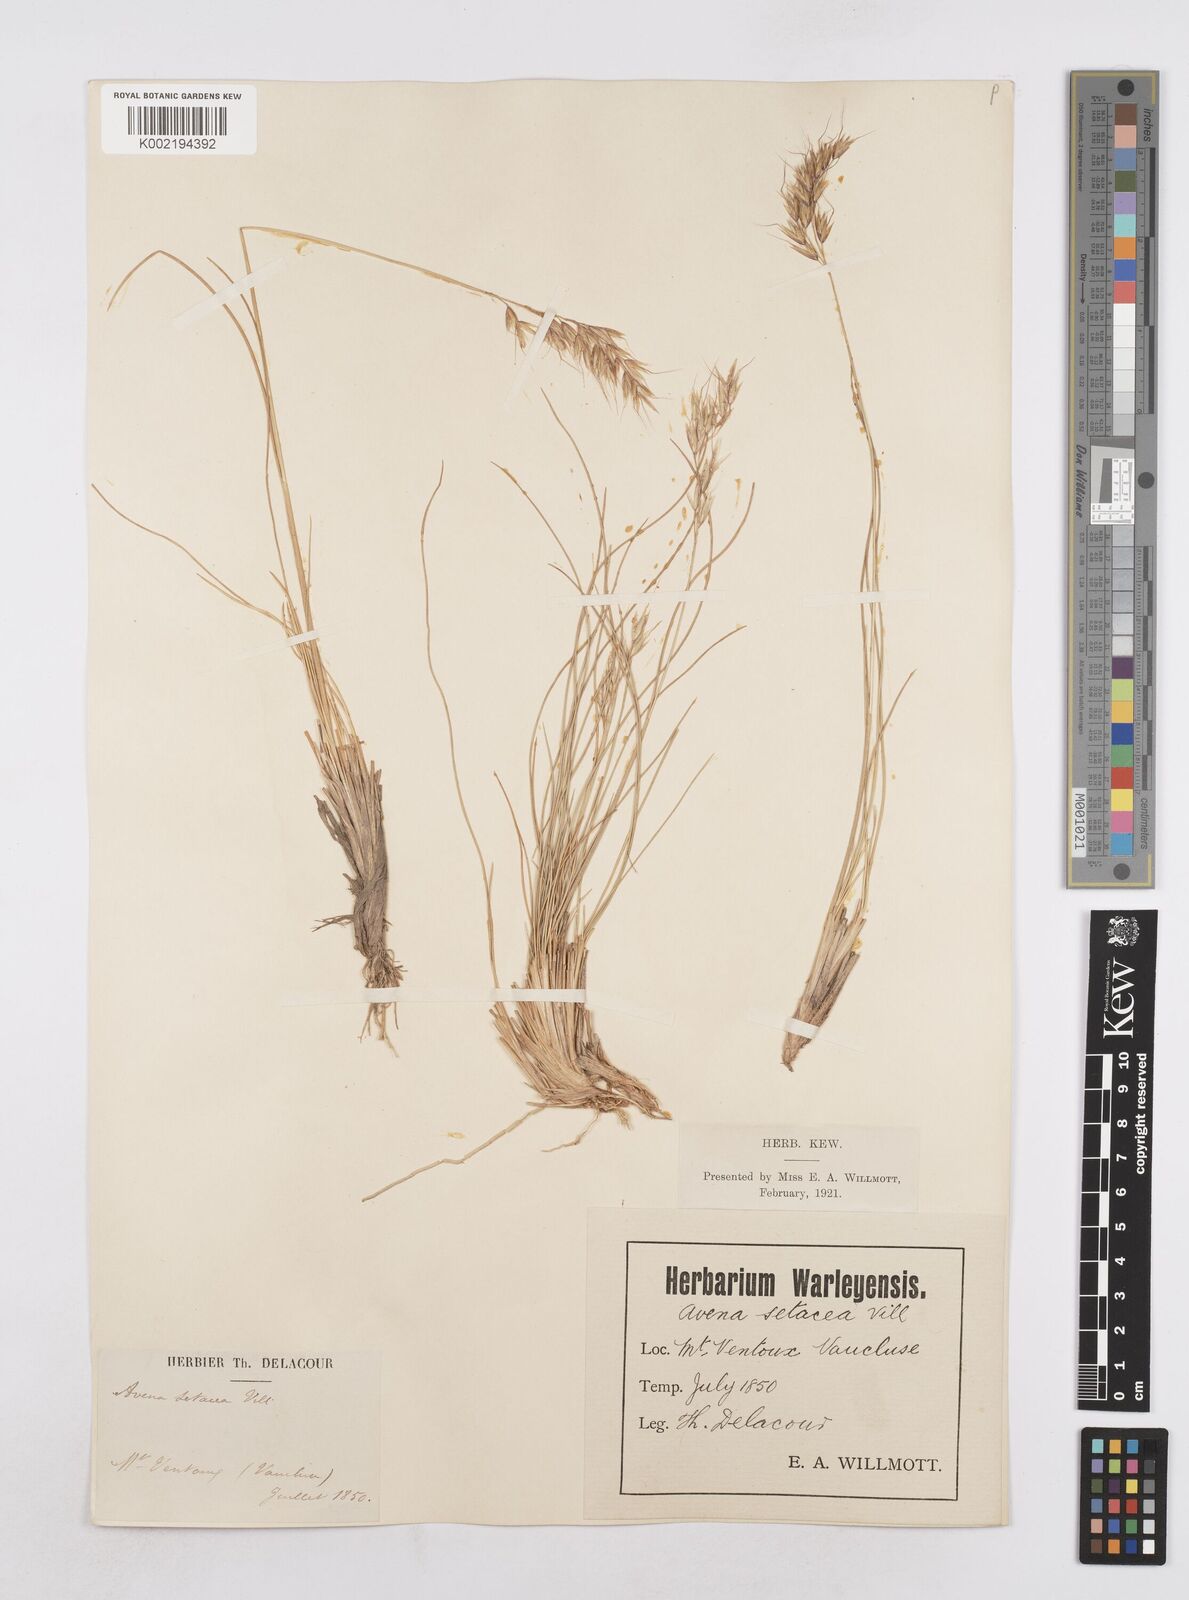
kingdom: Plantae
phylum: Tracheophyta
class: Liliopsida
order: Poales
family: Poaceae
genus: Helictotrichon
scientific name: Helictotrichon setaceum
